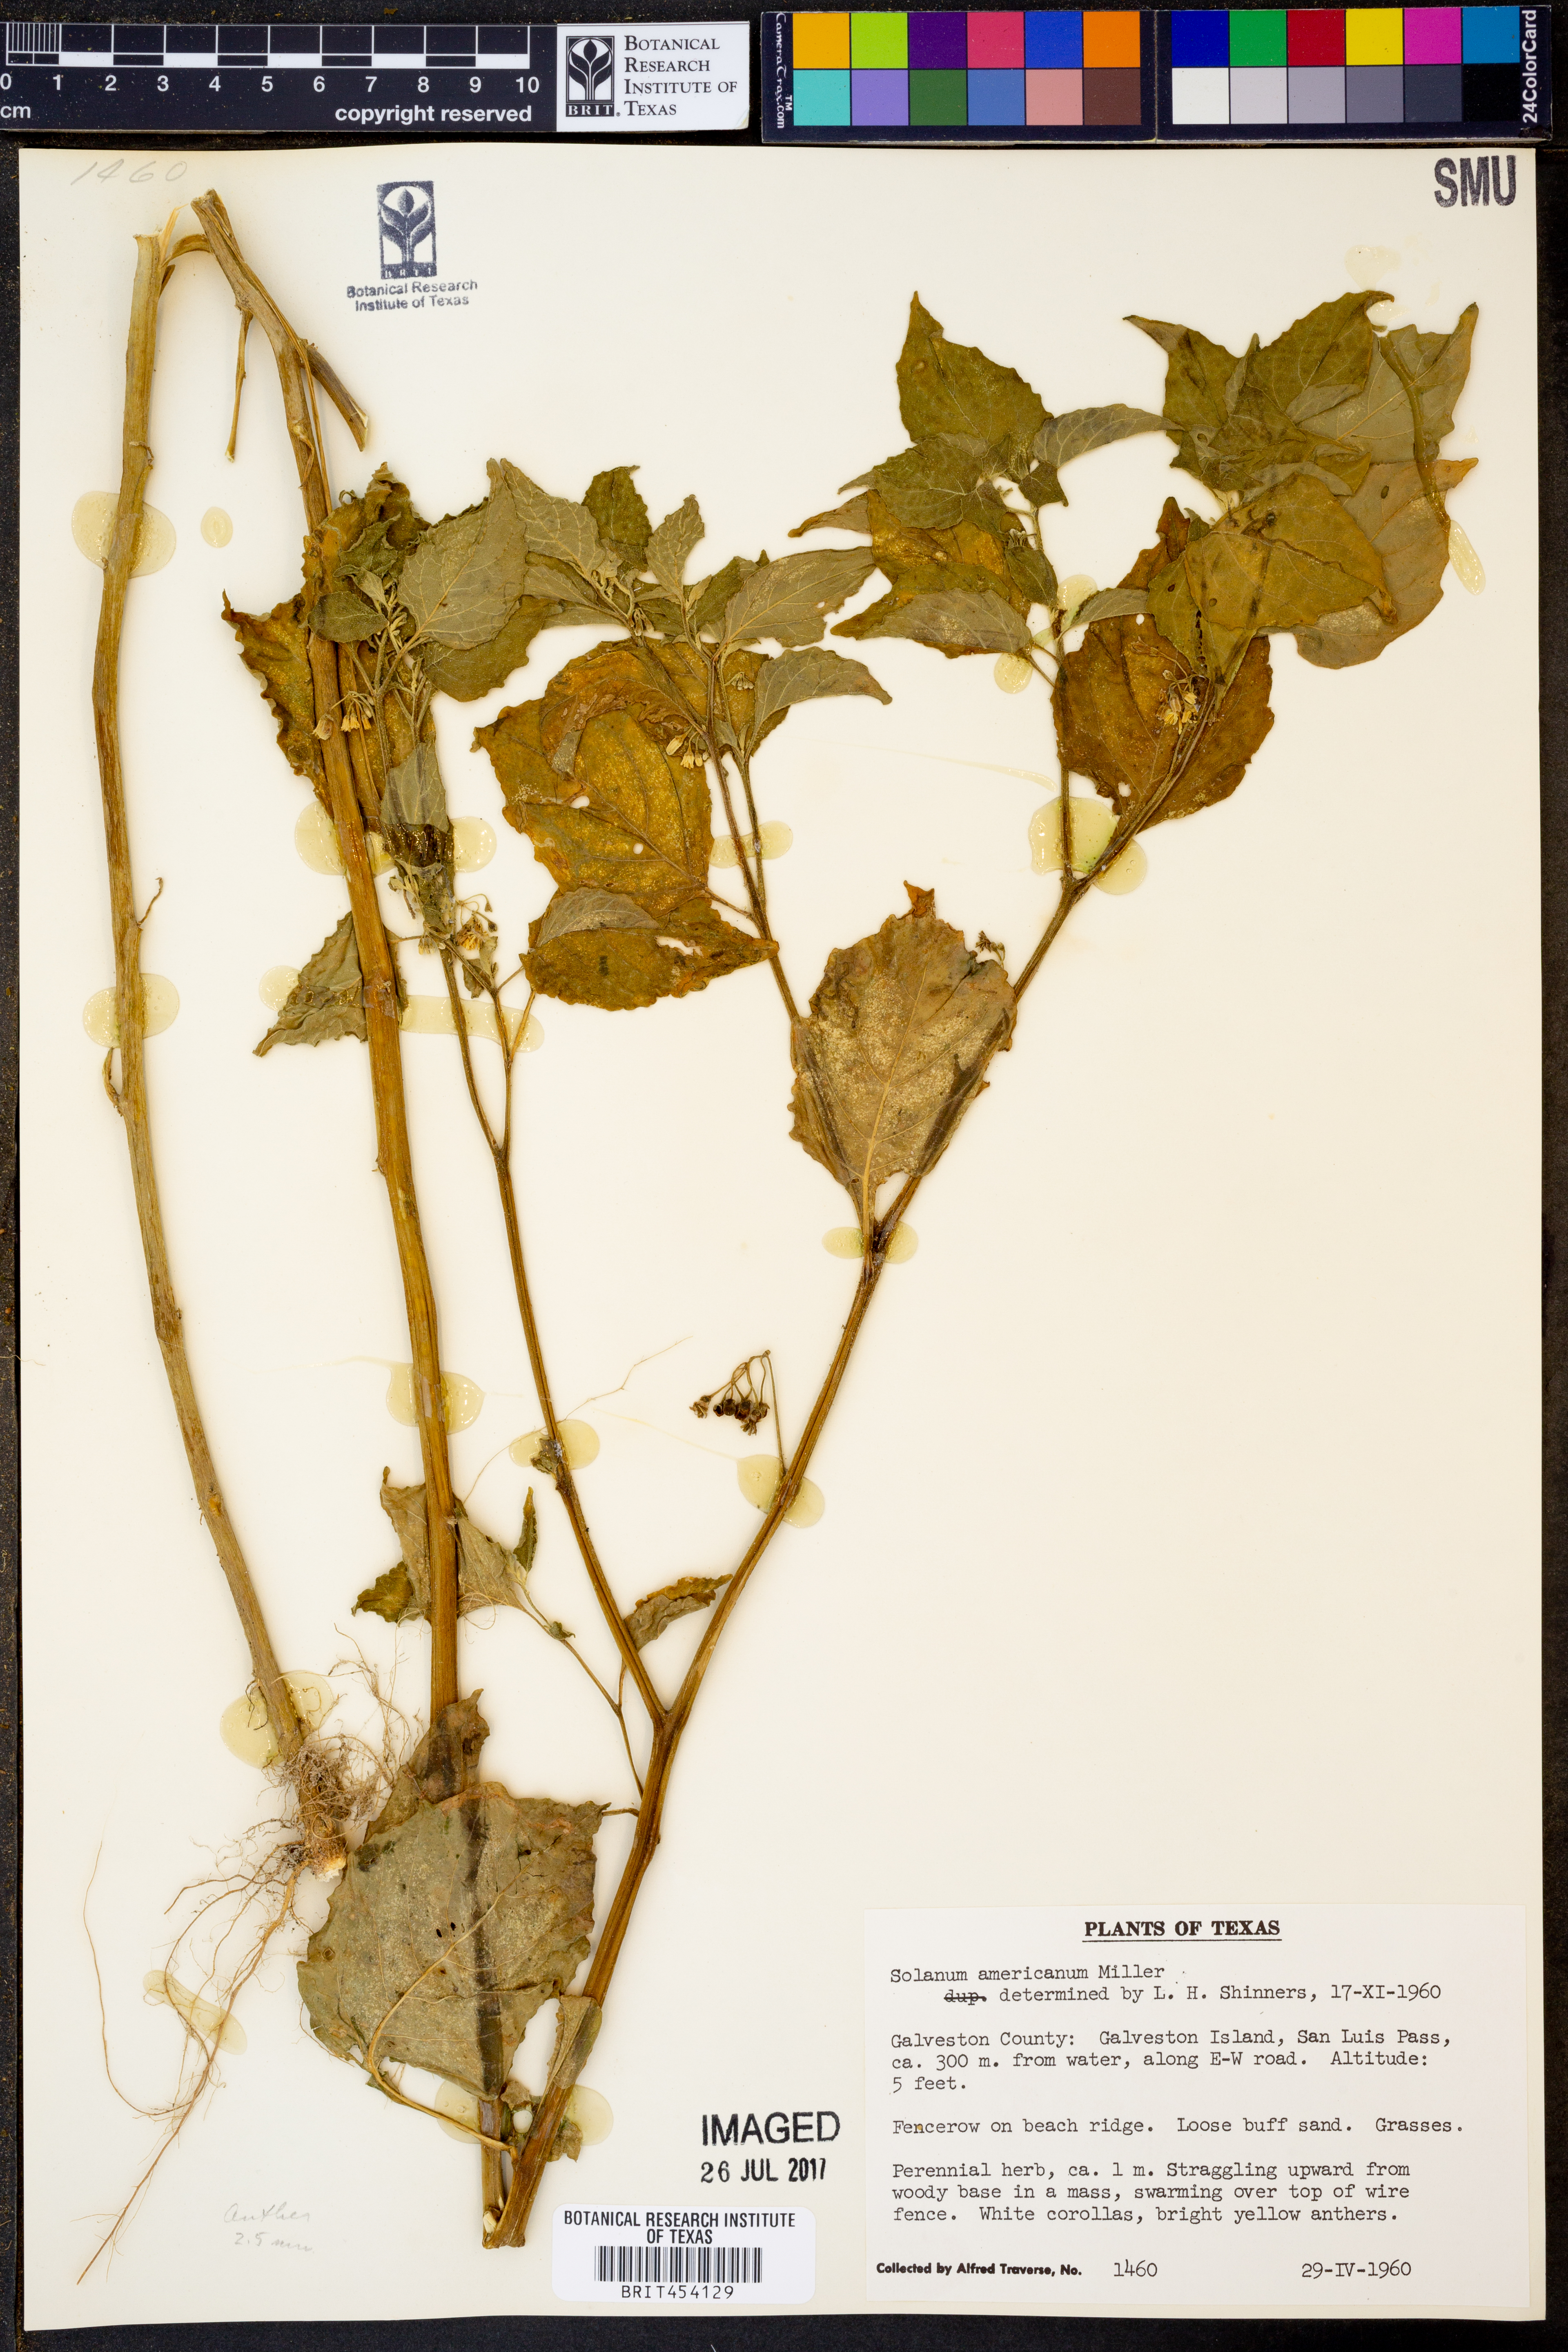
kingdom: Plantae
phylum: Tracheophyta
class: Magnoliopsida
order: Solanales
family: Solanaceae
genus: Solanum
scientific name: Solanum americanum
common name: American black nightshade
